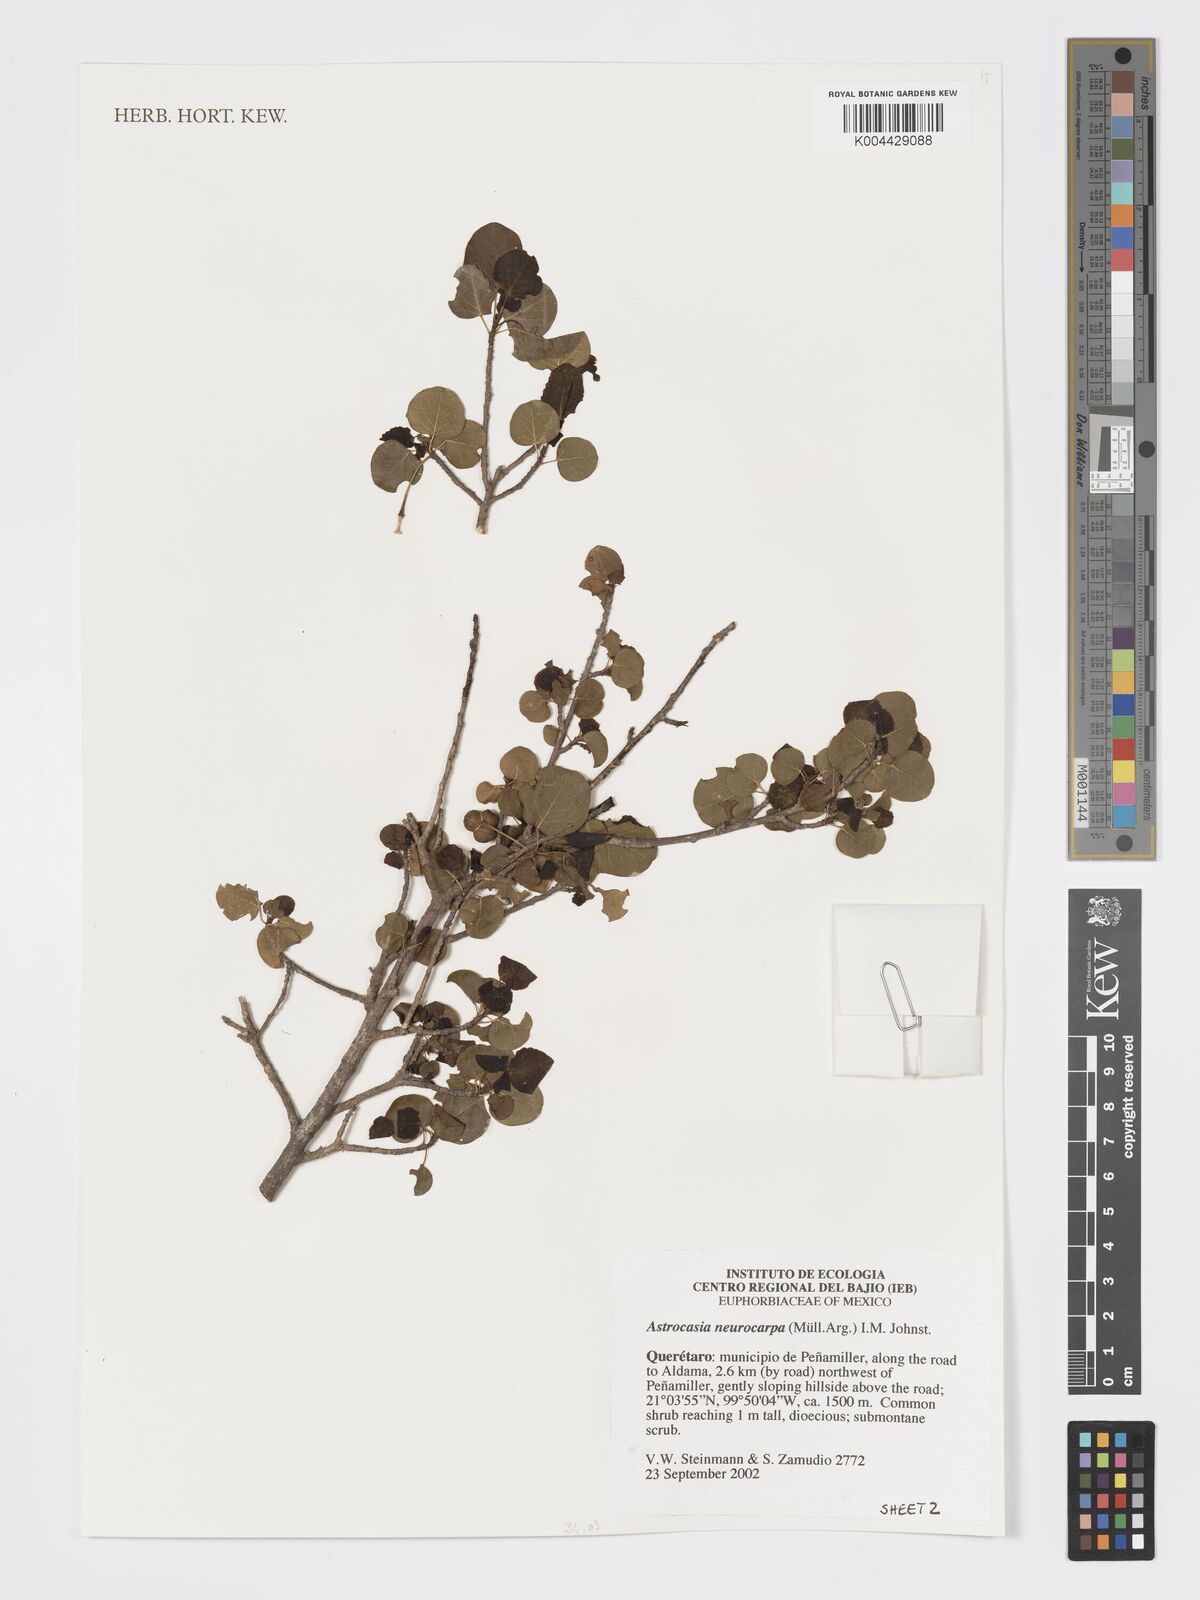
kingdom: Plantae
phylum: Tracheophyta
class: Magnoliopsida
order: Malpighiales
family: Phyllanthaceae
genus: Astrocasia
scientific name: Astrocasia neurocarpa
